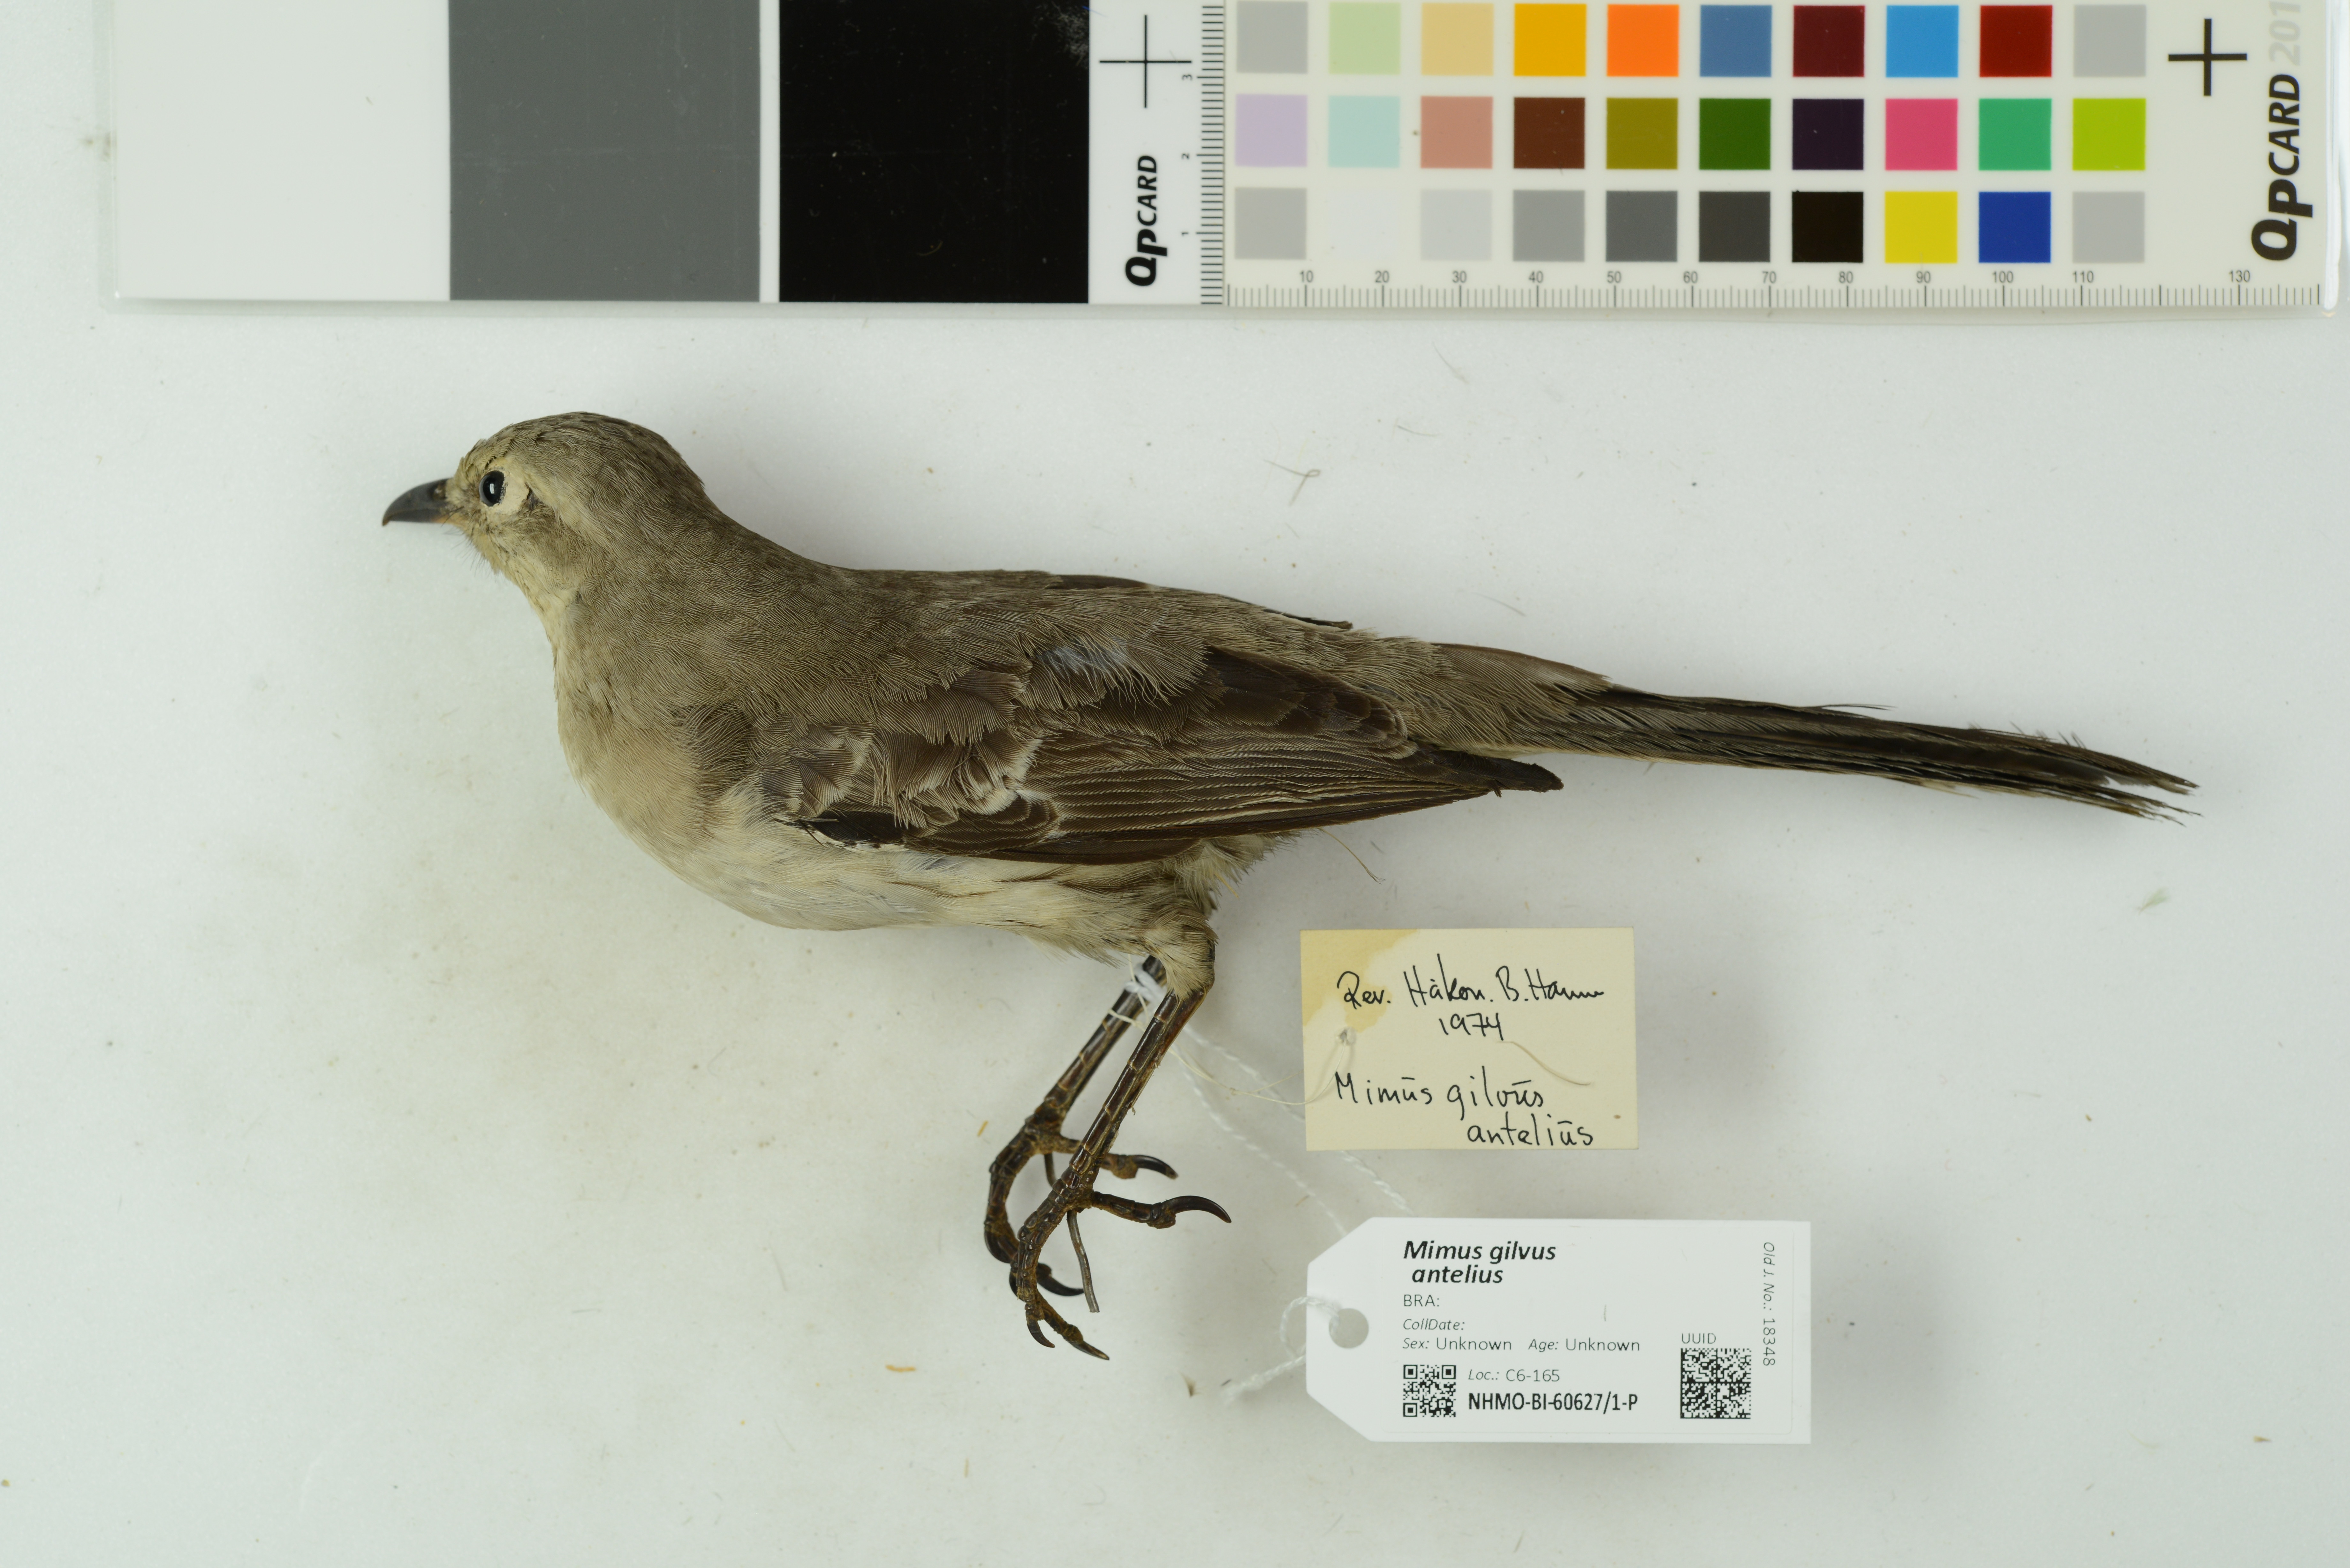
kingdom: Animalia
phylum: Chordata
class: Aves
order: Passeriformes
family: Mimidae
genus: Mimus
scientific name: Mimus gilvus
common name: Tropical mockingbird
